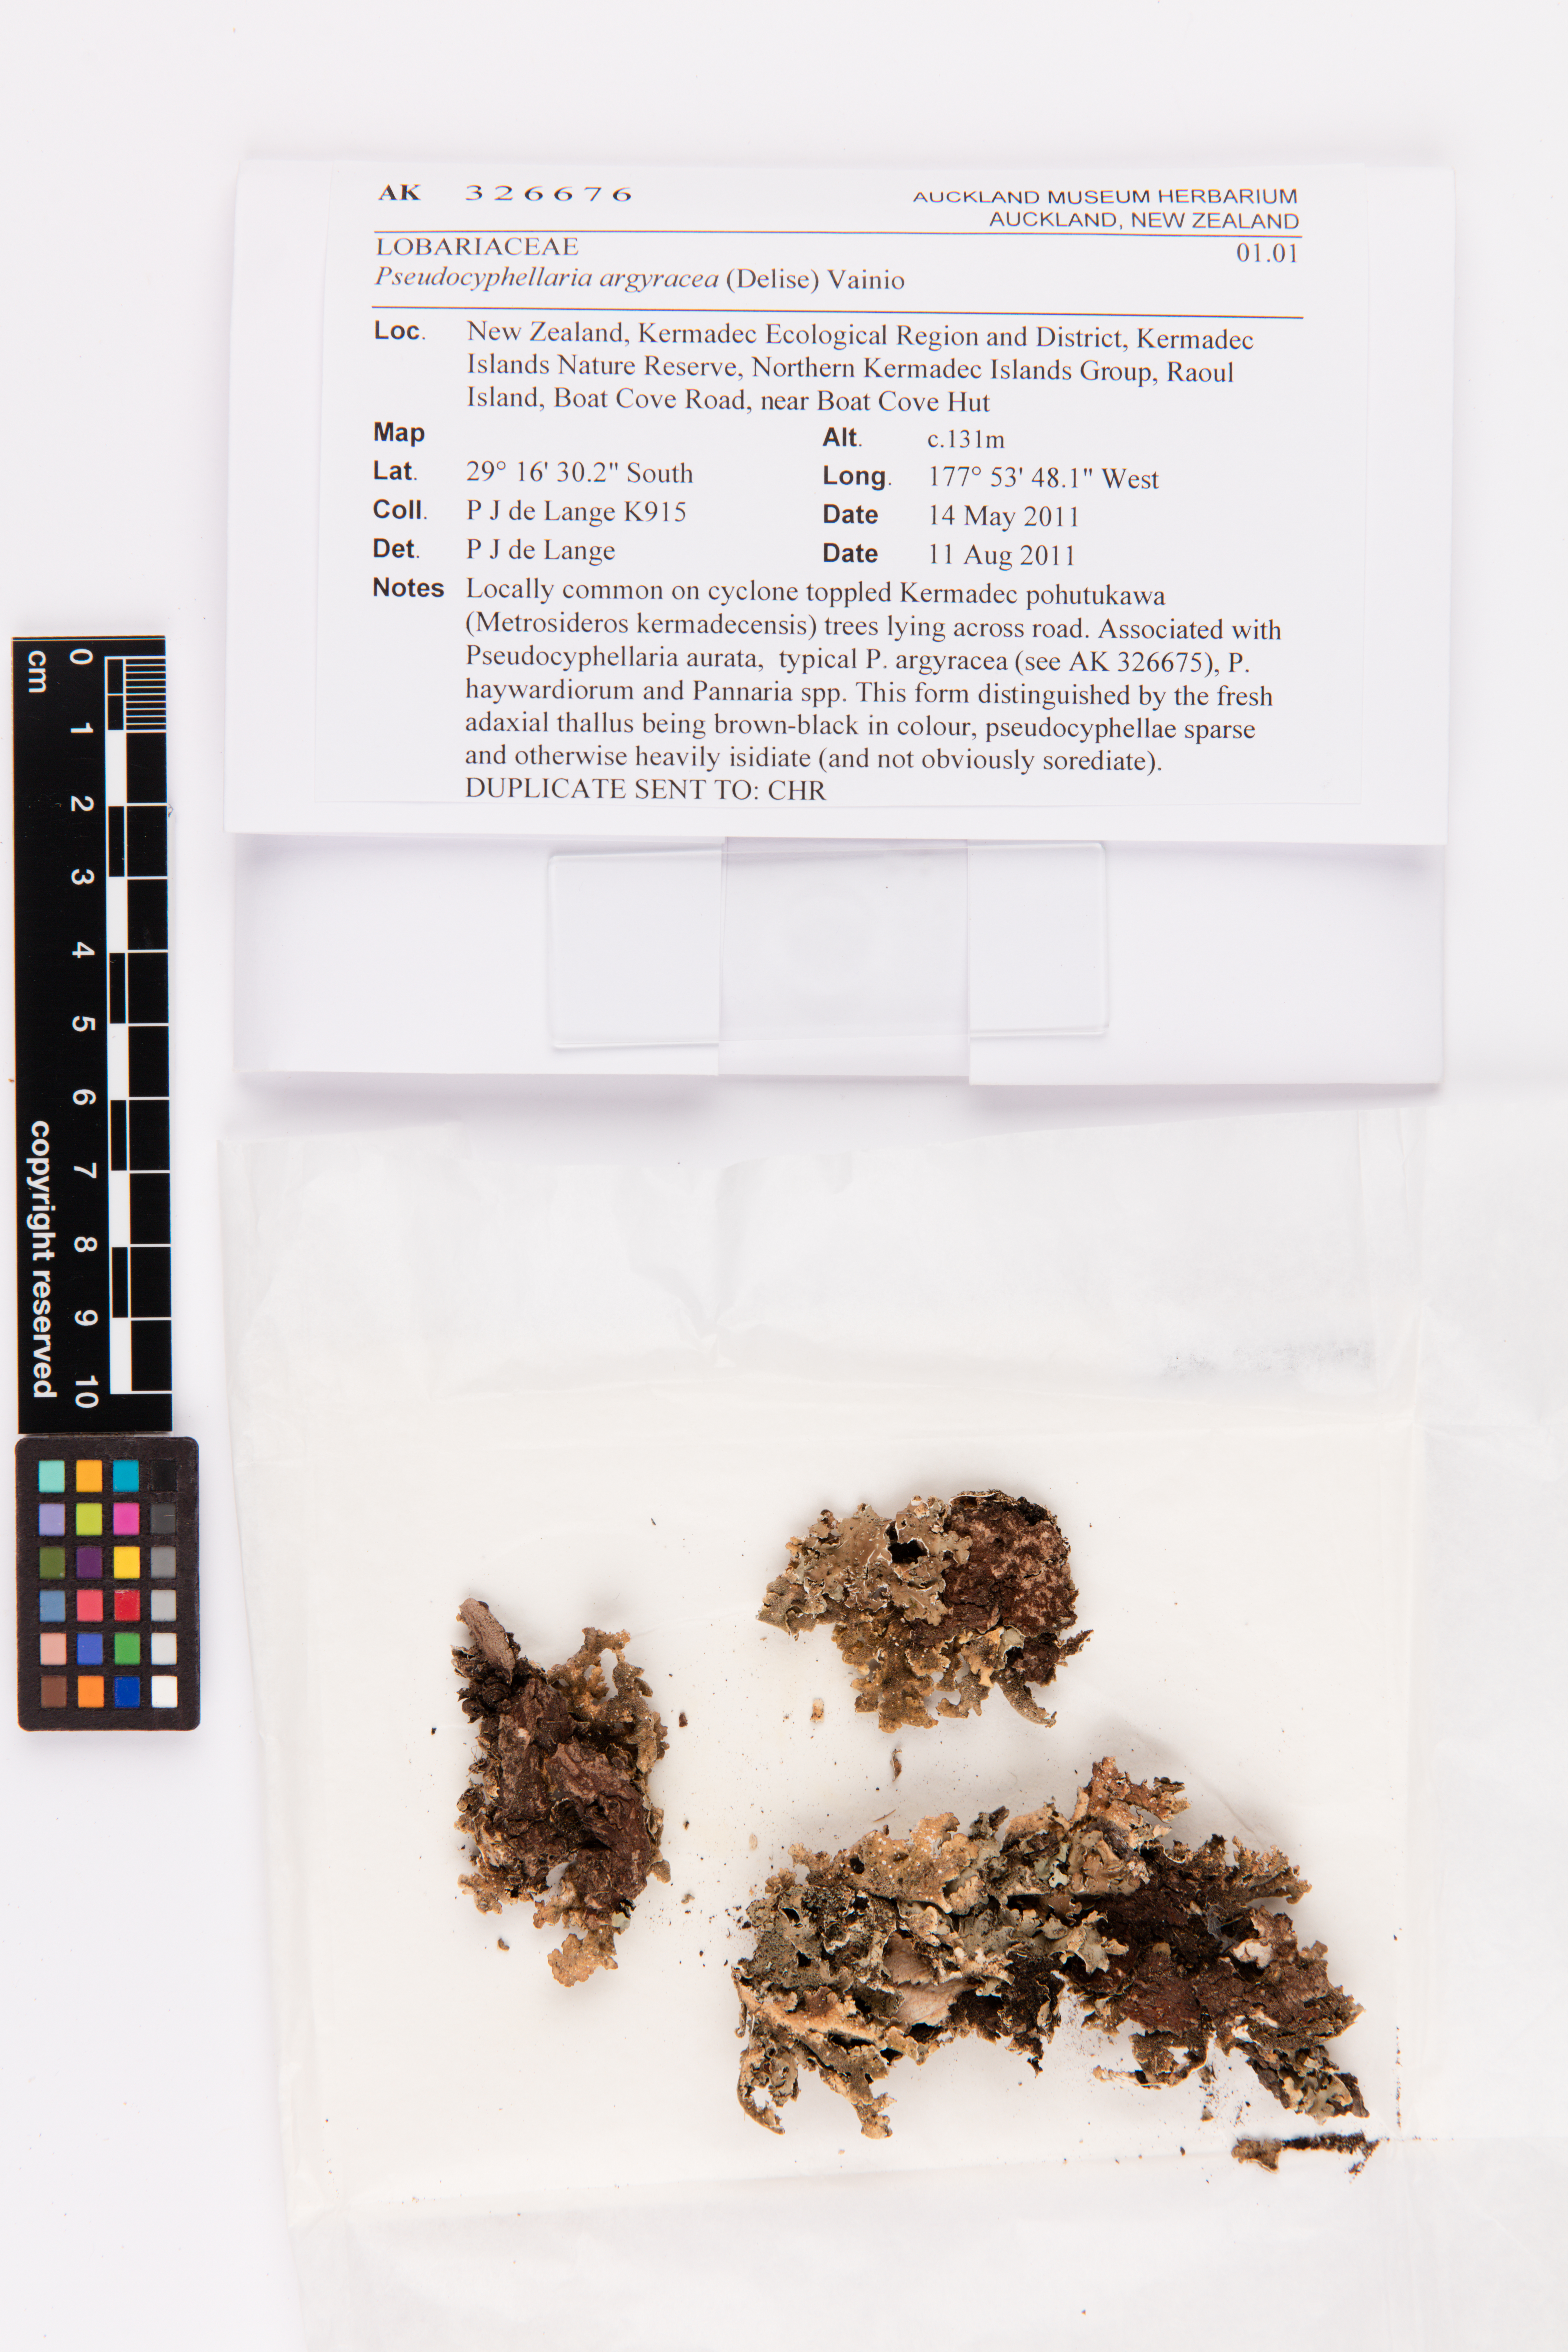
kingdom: Fungi
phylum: Ascomycota
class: Lecanoromycetes
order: Peltigerales
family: Lobariaceae
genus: Pseudocyphellaria
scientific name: Pseudocyphellaria argyracea
